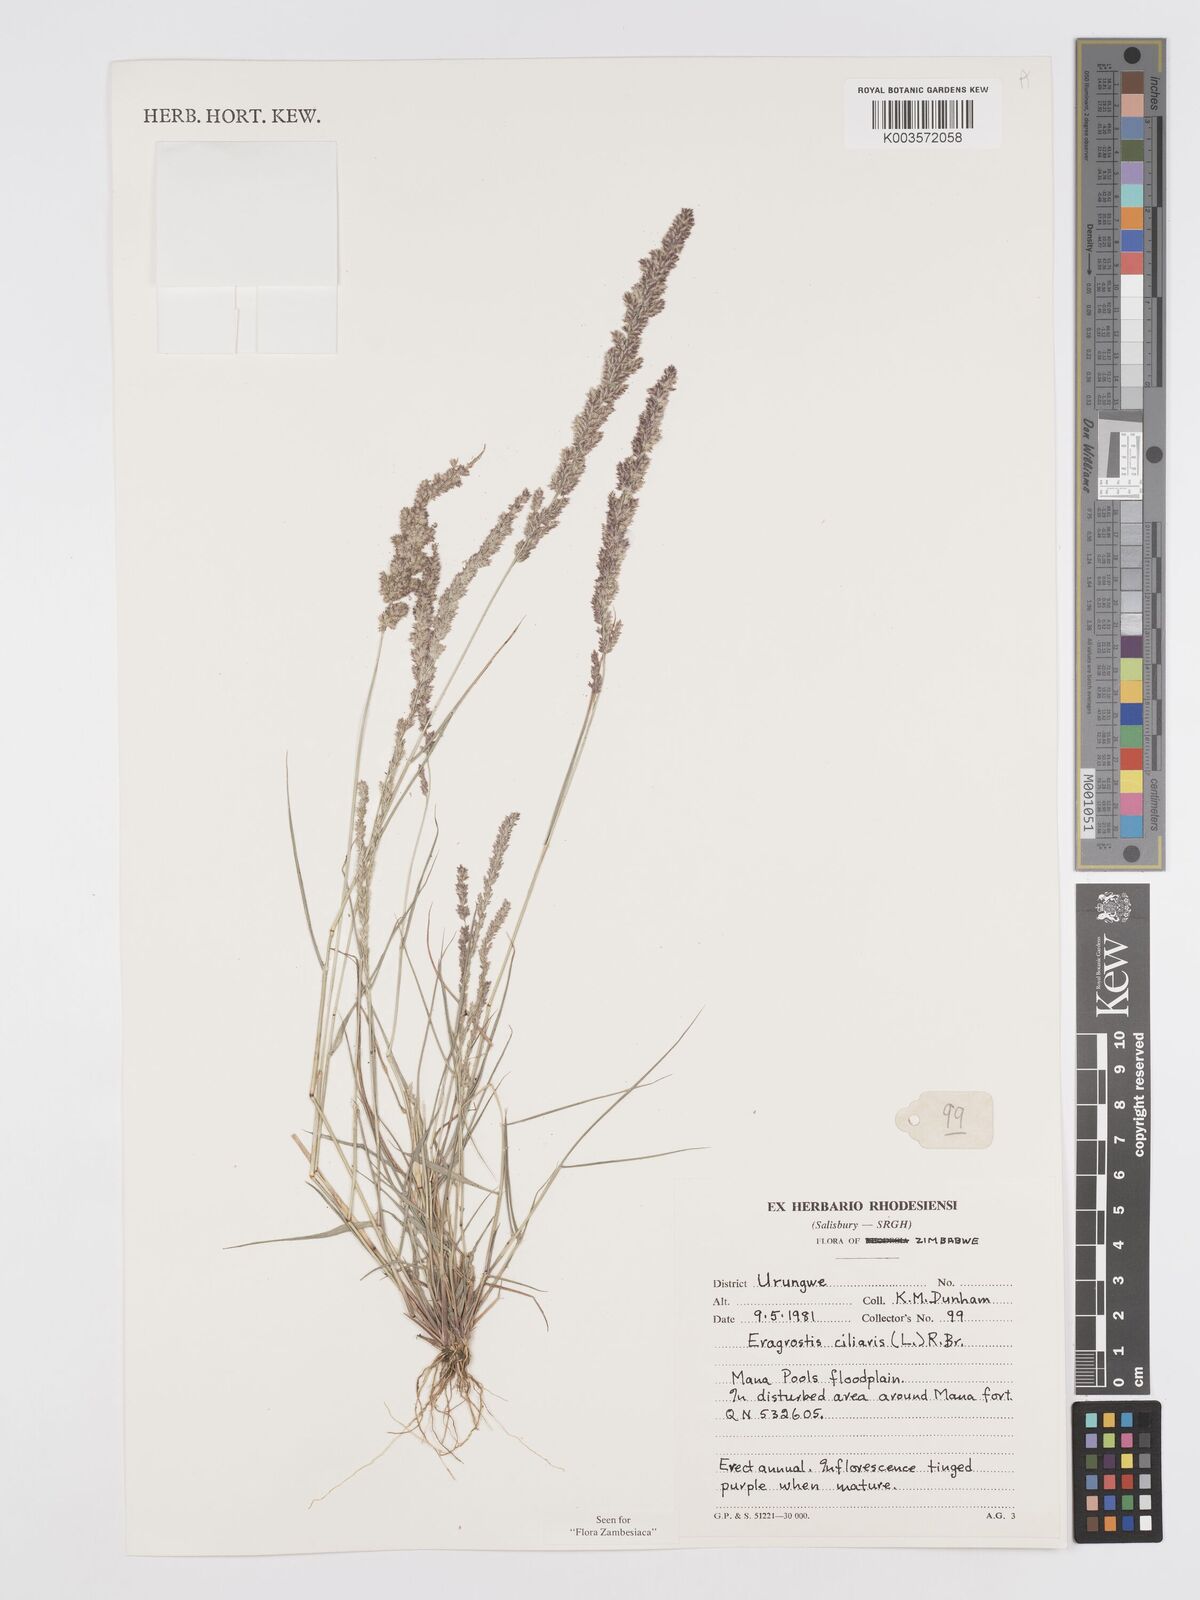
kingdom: Plantae
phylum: Tracheophyta
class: Liliopsida
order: Poales
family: Poaceae
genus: Eragrostis
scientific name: Eragrostis ciliaris
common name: Gophertail lovegrass
